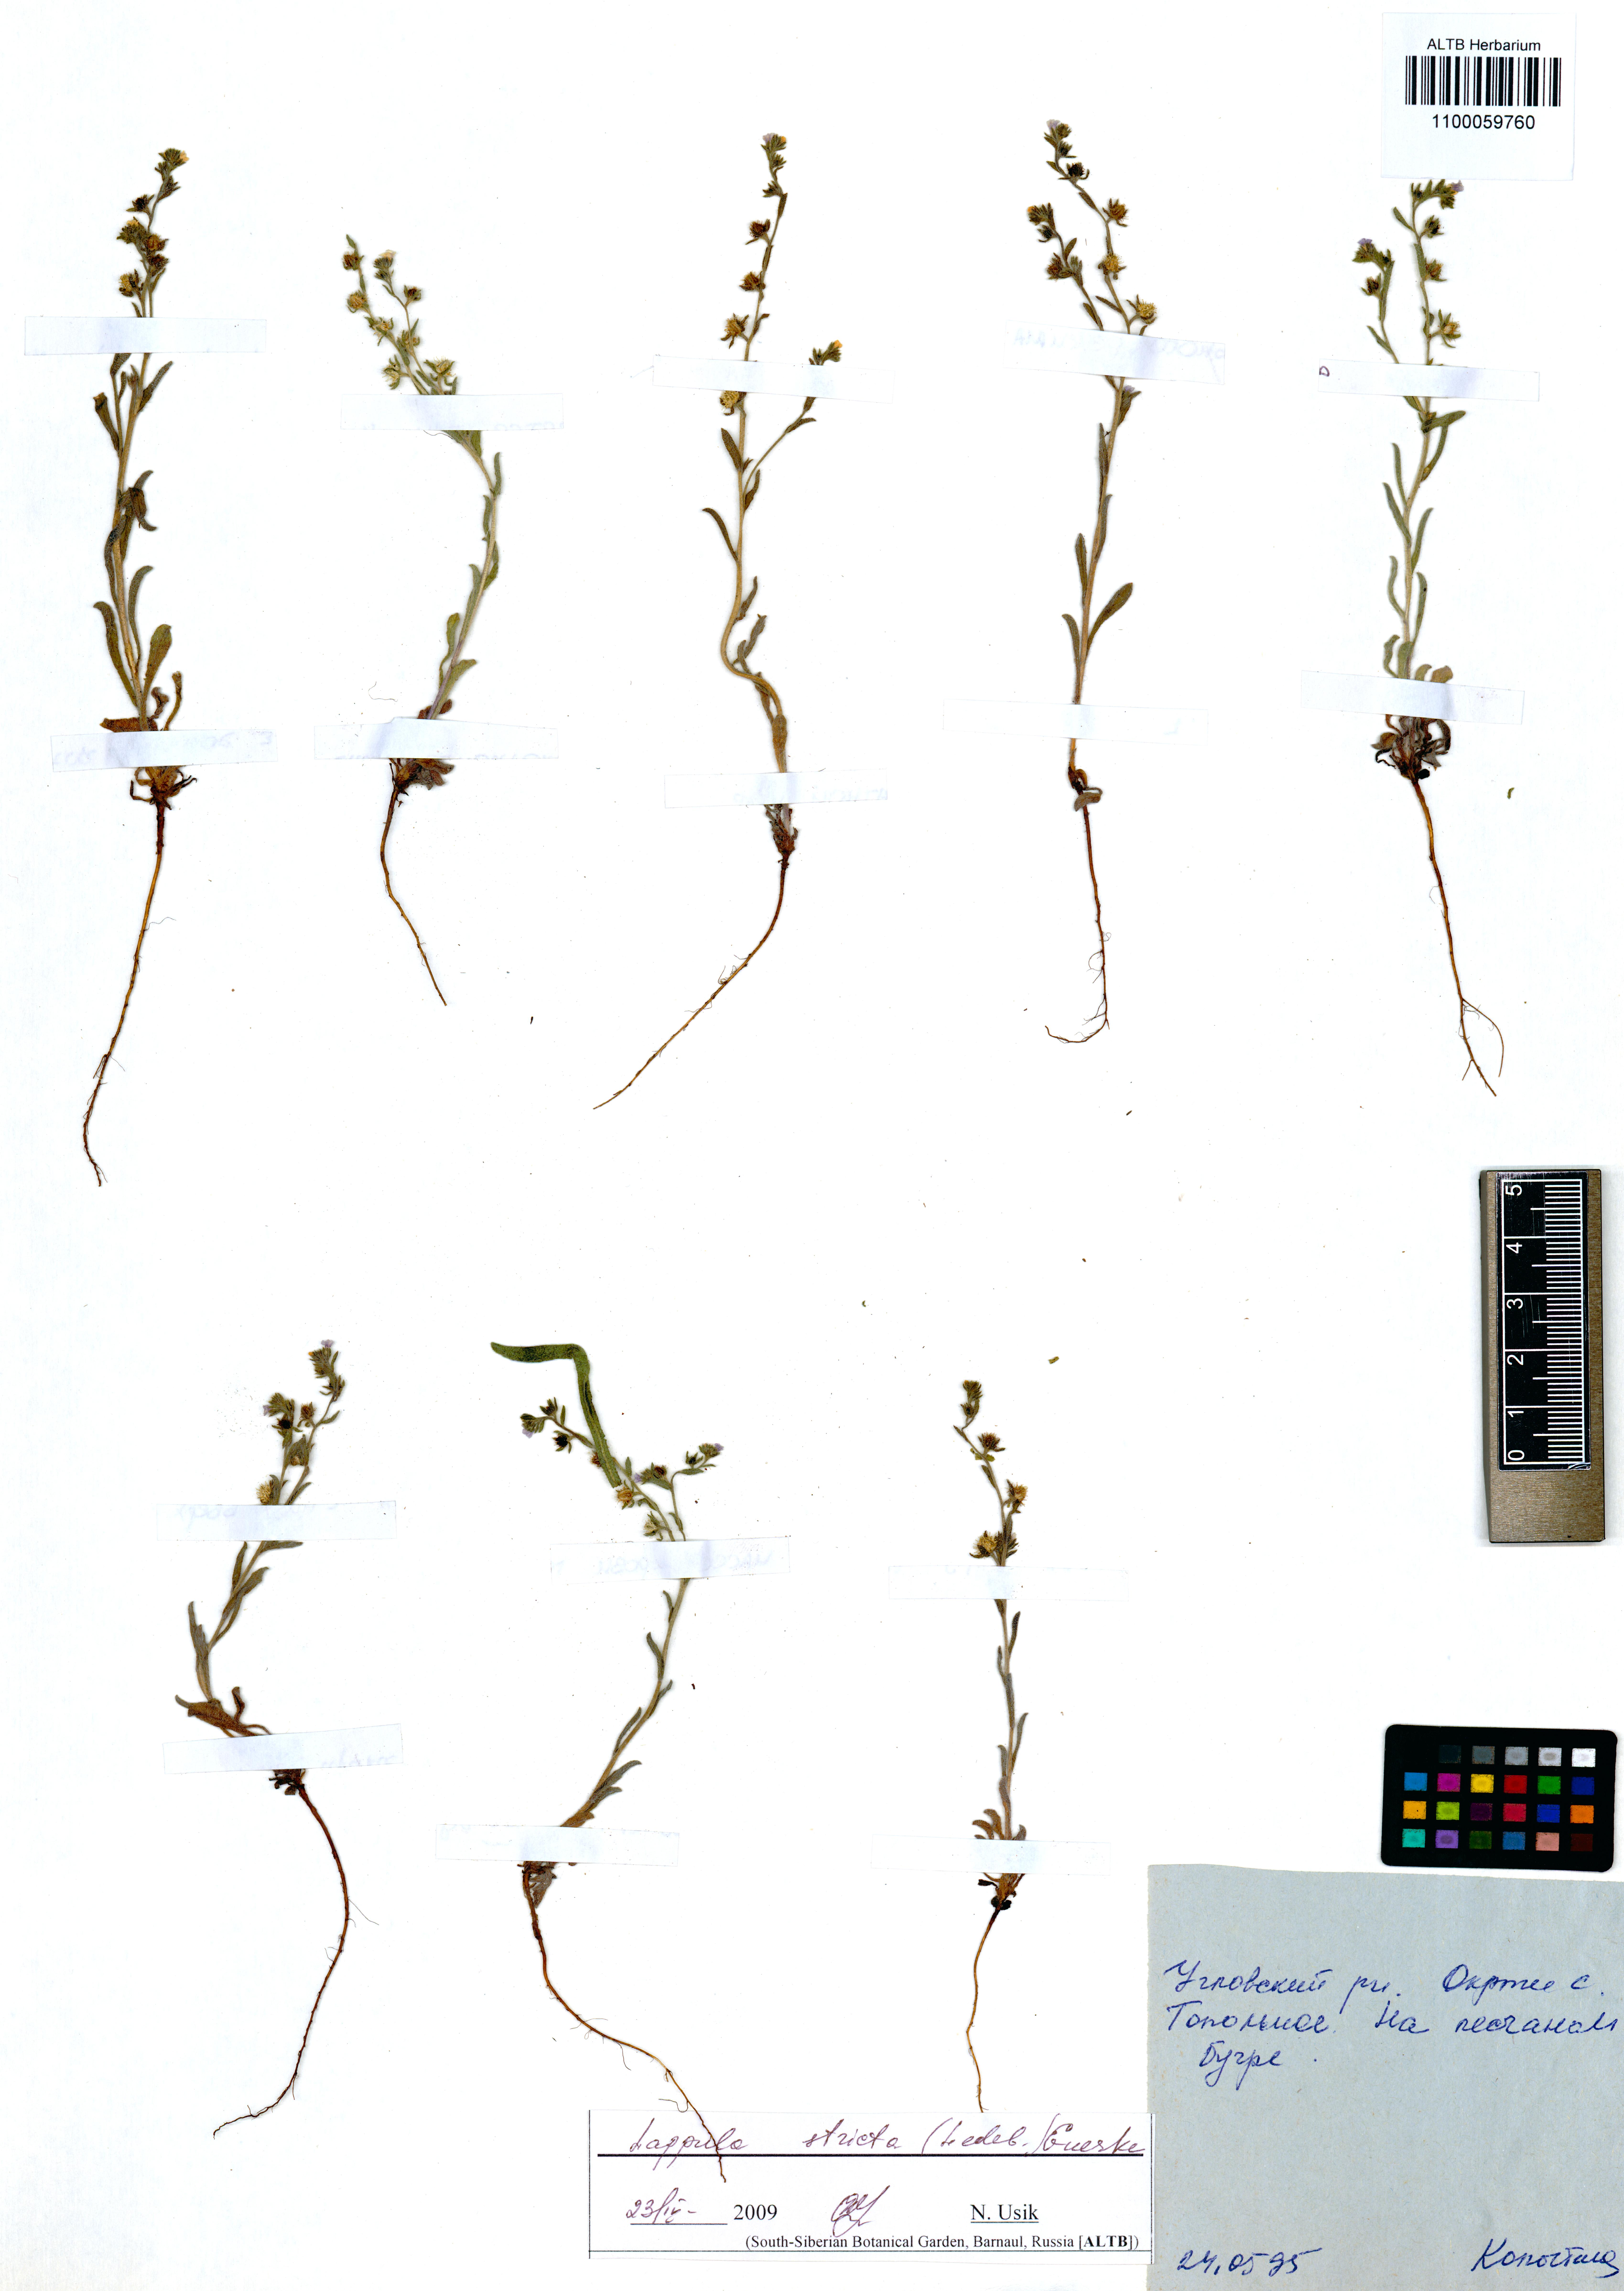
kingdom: Plantae
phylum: Tracheophyta
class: Magnoliopsida
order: Boraginales
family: Boraginaceae
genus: Lappula
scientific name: Lappula stricta
